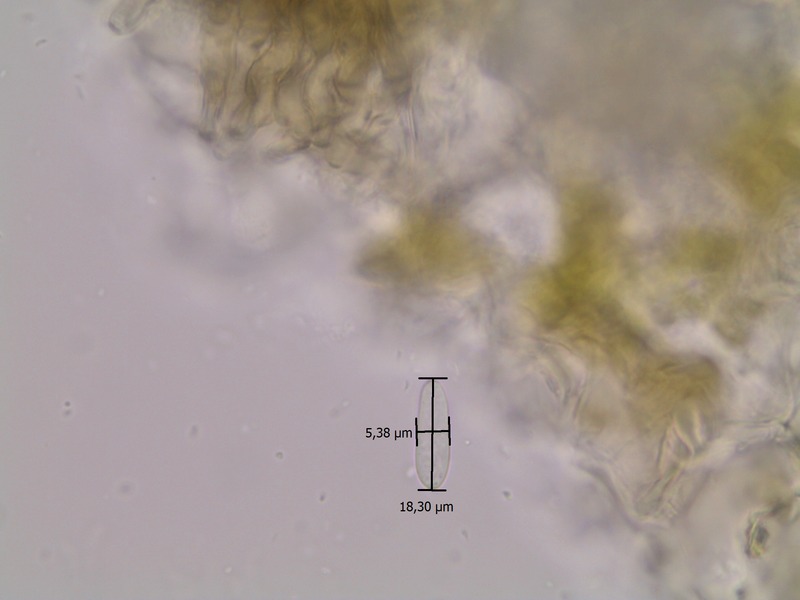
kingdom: Fungi
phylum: Ascomycota
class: Dothideomycetes
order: Mycosphaerellales
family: Mycosphaerellaceae
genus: Cercospora
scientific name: Cercospora mercurialis
